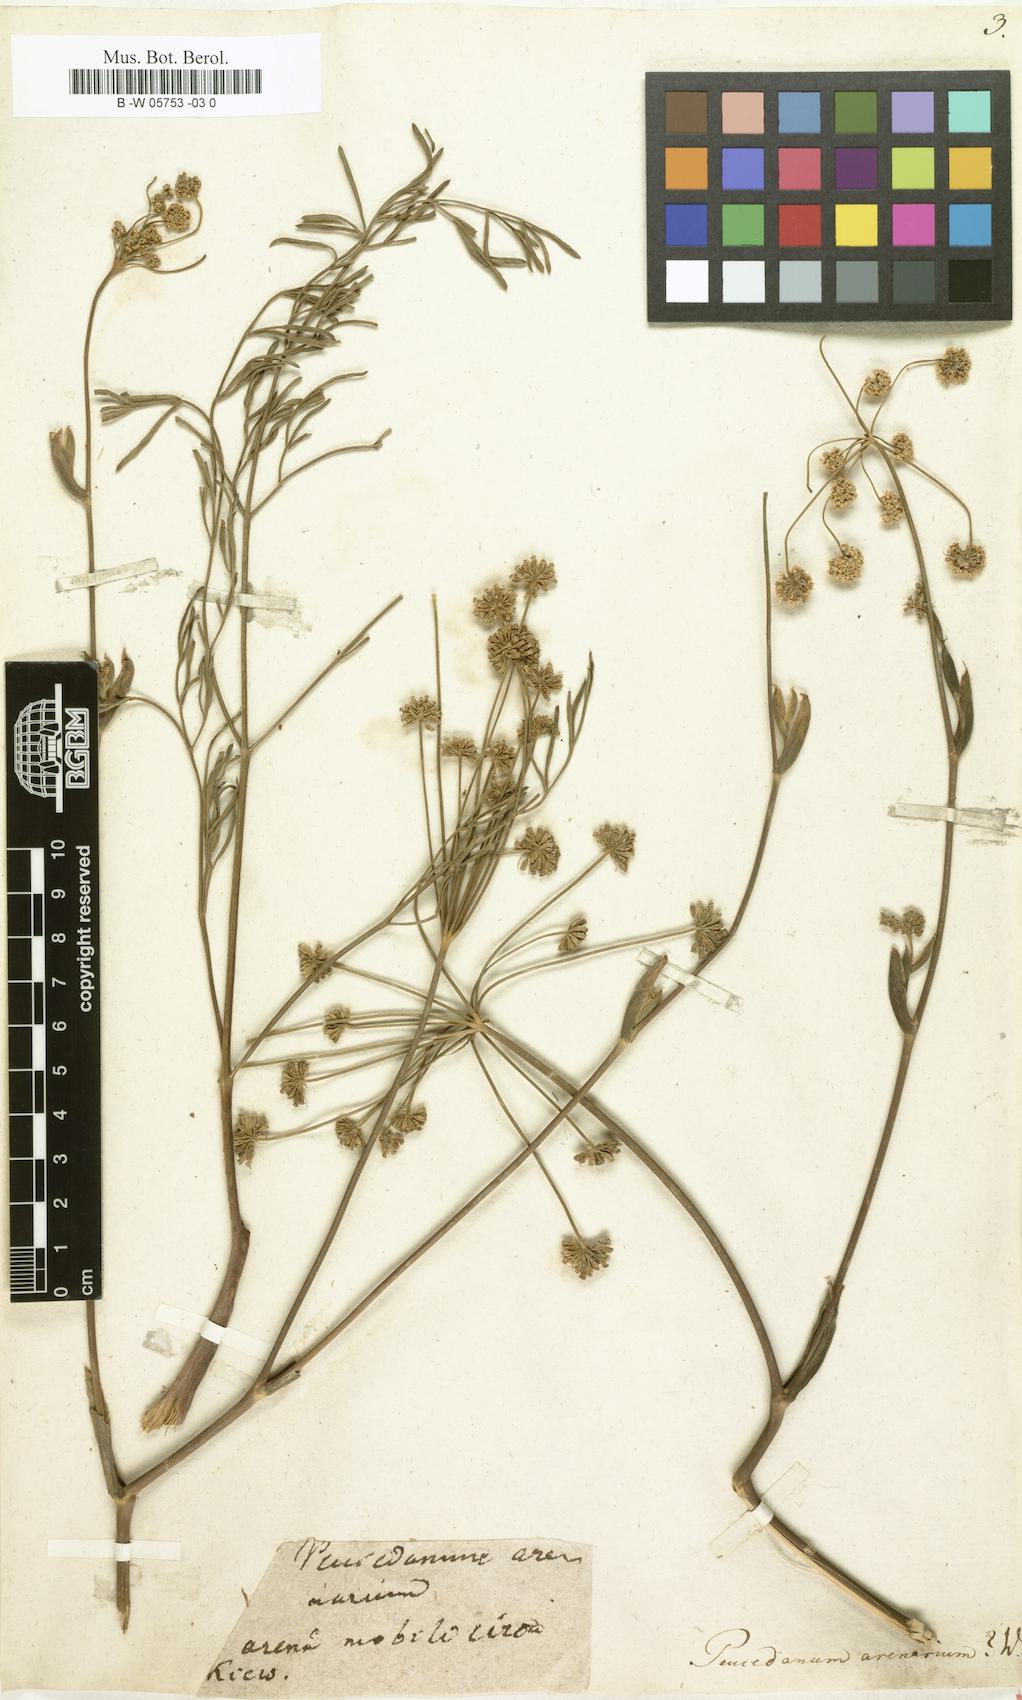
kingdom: Plantae
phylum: Tracheophyta
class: Magnoliopsida
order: Apiales
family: Apiaceae
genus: Taeniopetalum
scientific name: Taeniopetalum arenarium
